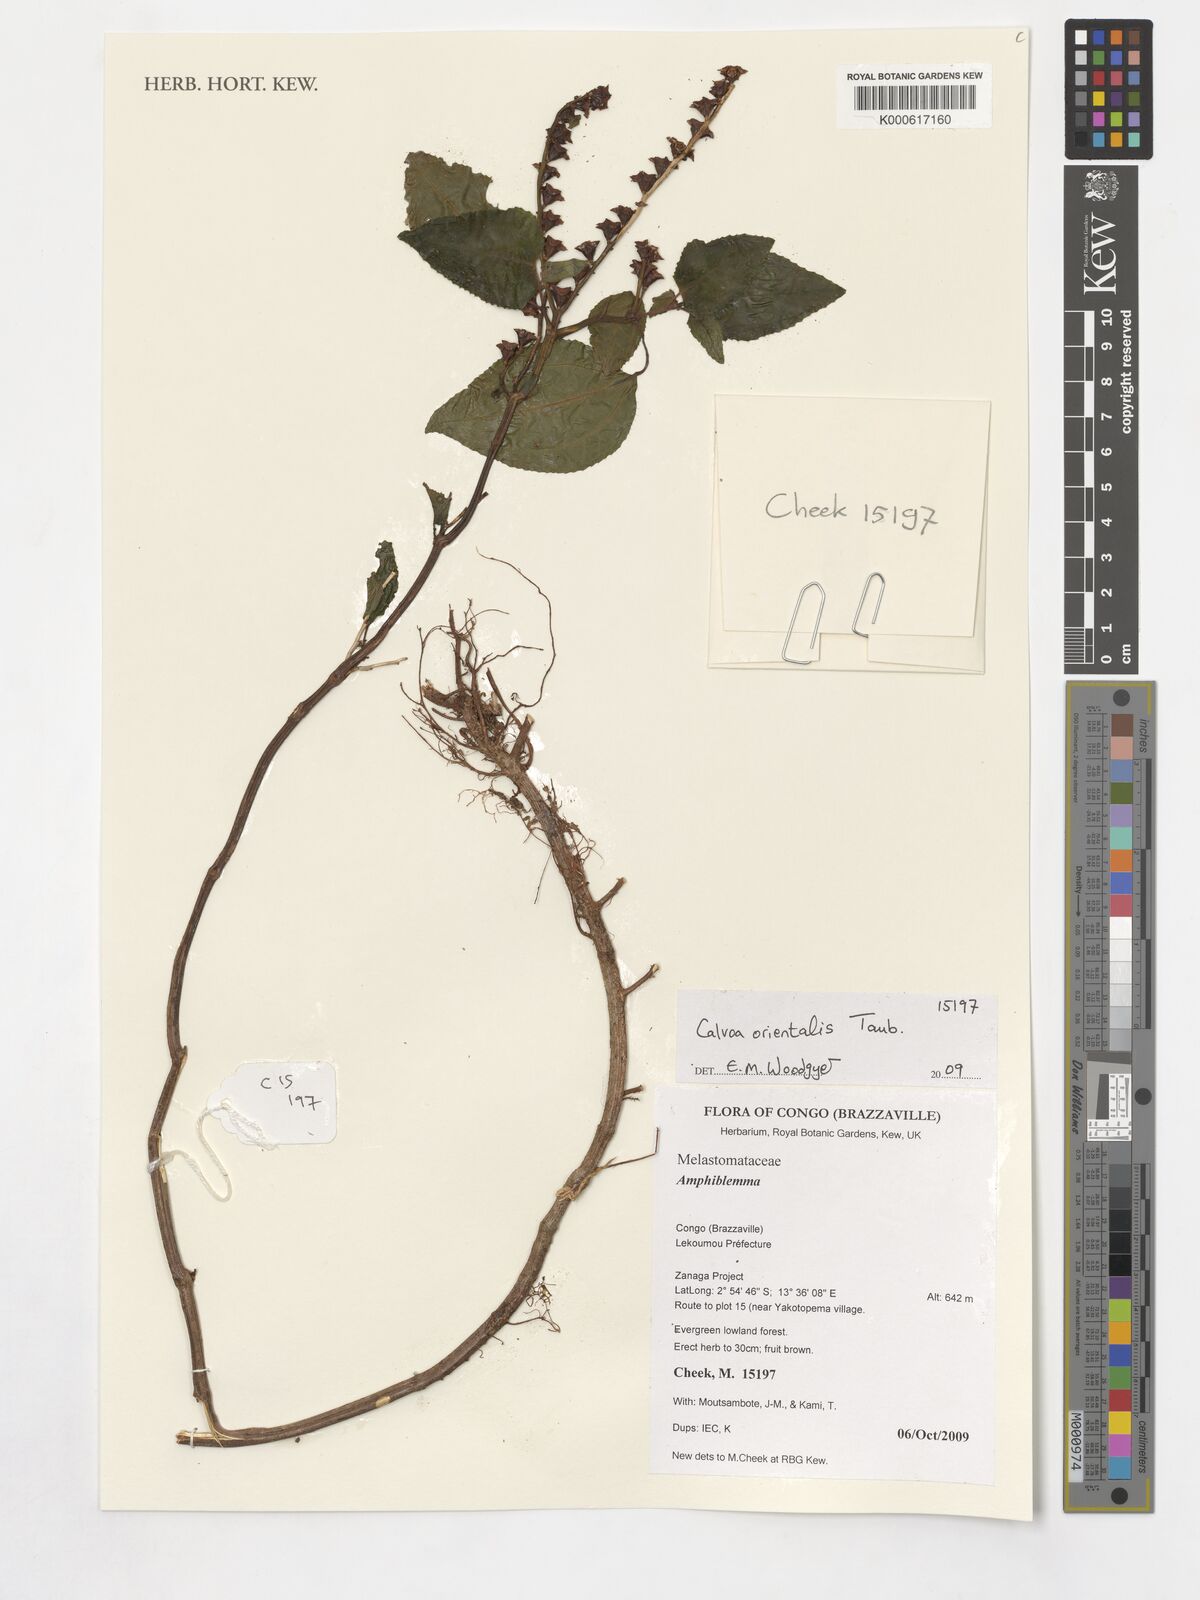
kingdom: Plantae
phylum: Tracheophyta
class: Magnoliopsida
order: Myrtales
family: Melastomataceae
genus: Calvoa
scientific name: Calvoa orientalis
